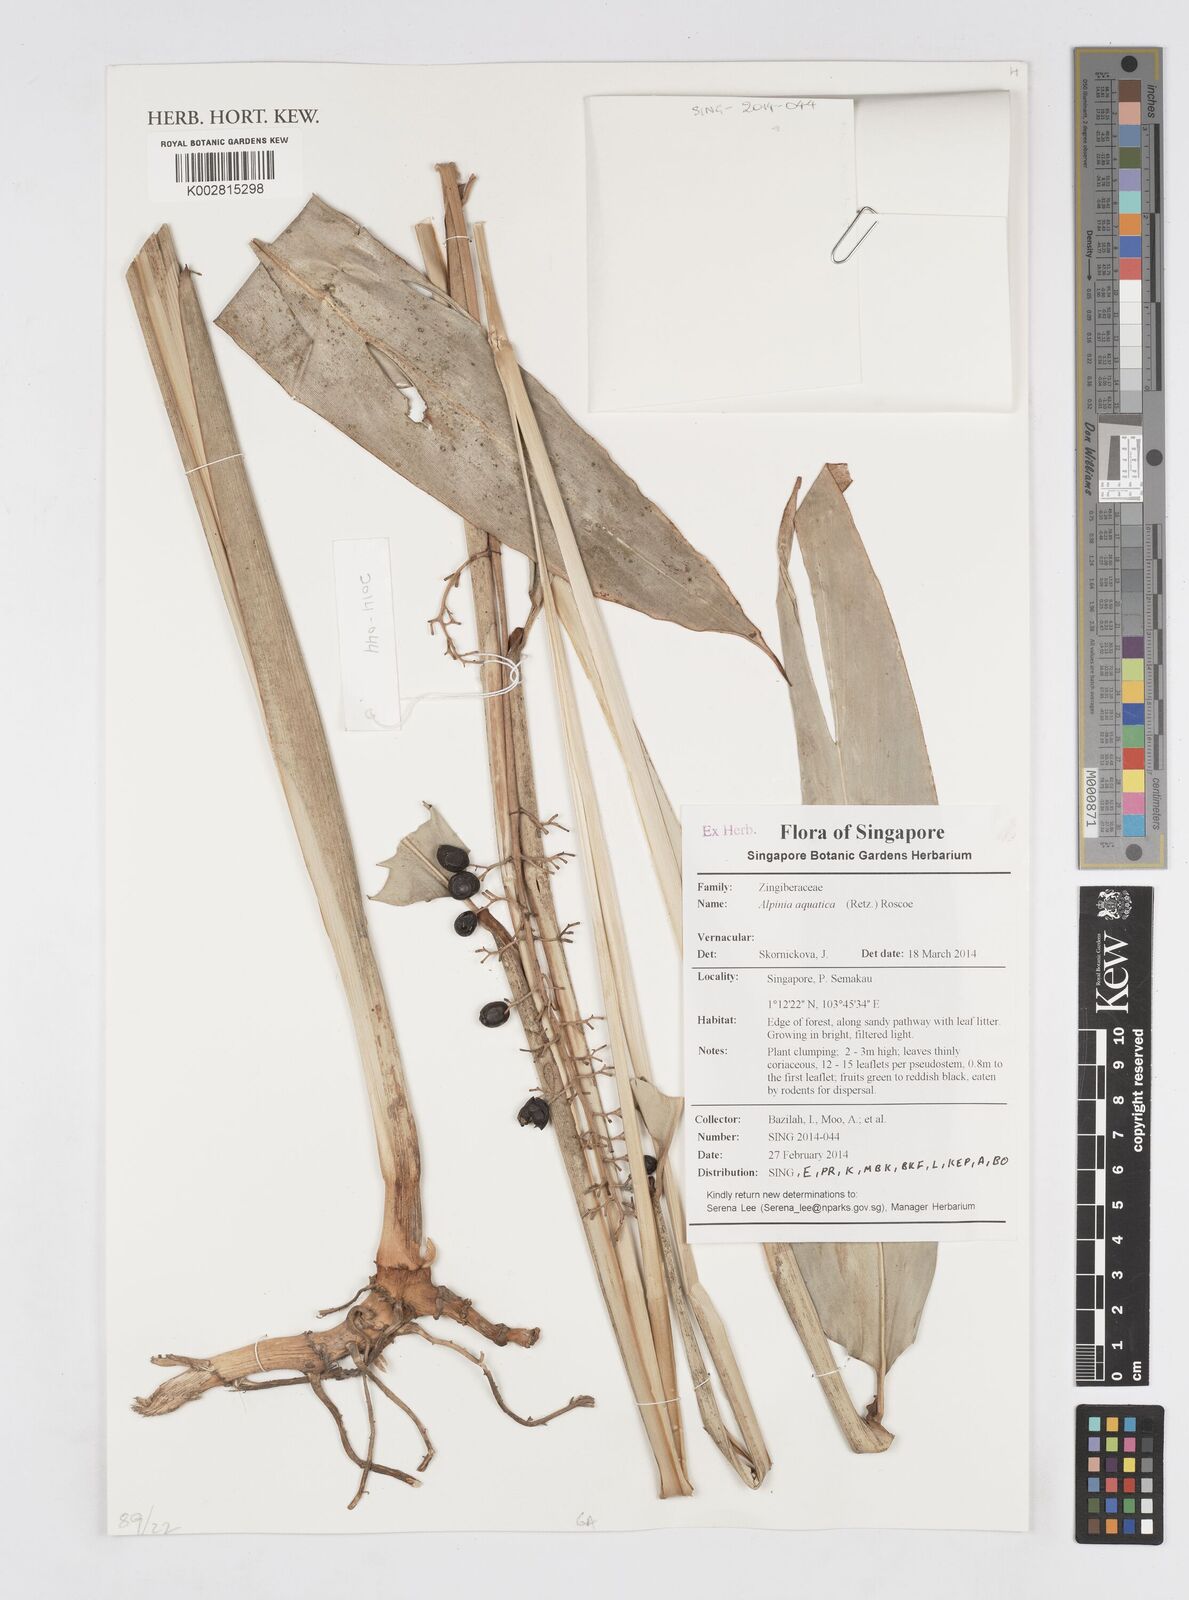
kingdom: Plantae
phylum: Tracheophyta
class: Liliopsida
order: Zingiberales
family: Zingiberaceae
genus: Alpinia
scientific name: Alpinia aquatica
